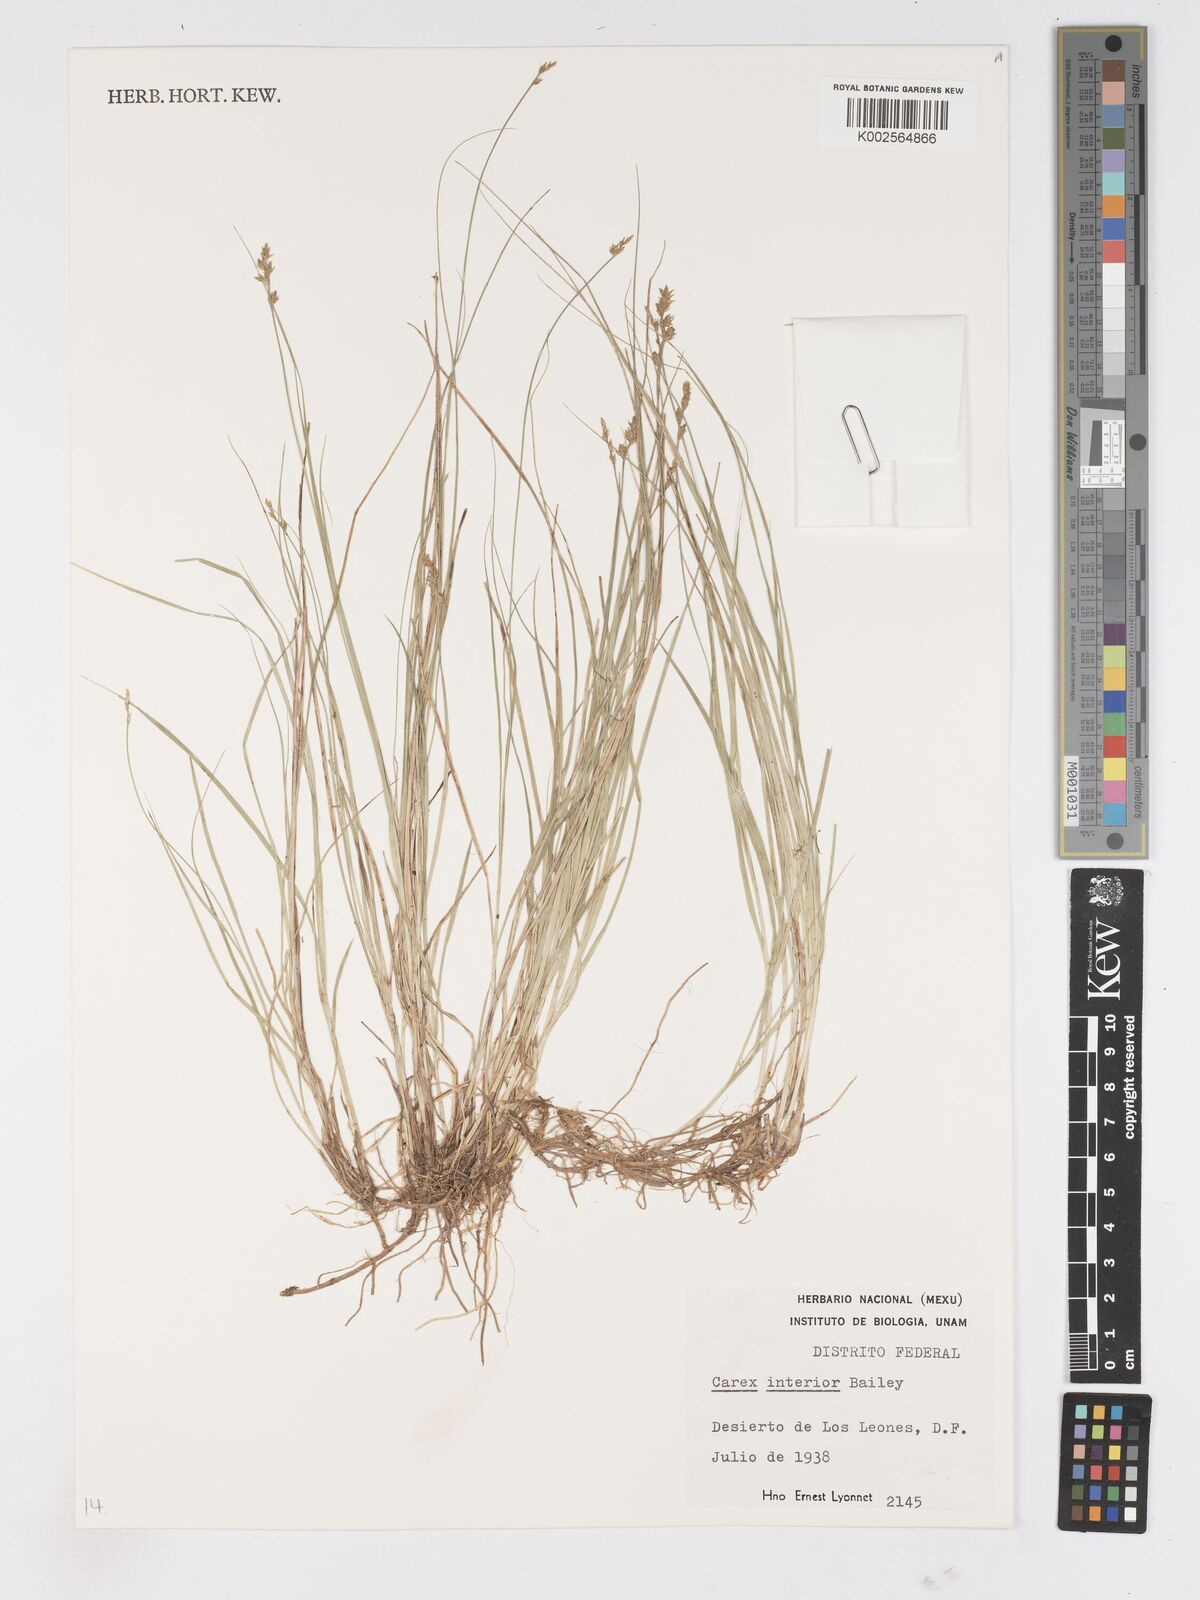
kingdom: Plantae
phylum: Tracheophyta
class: Liliopsida
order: Poales
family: Cyperaceae
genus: Carex
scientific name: Carex interior
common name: Inland sedge
